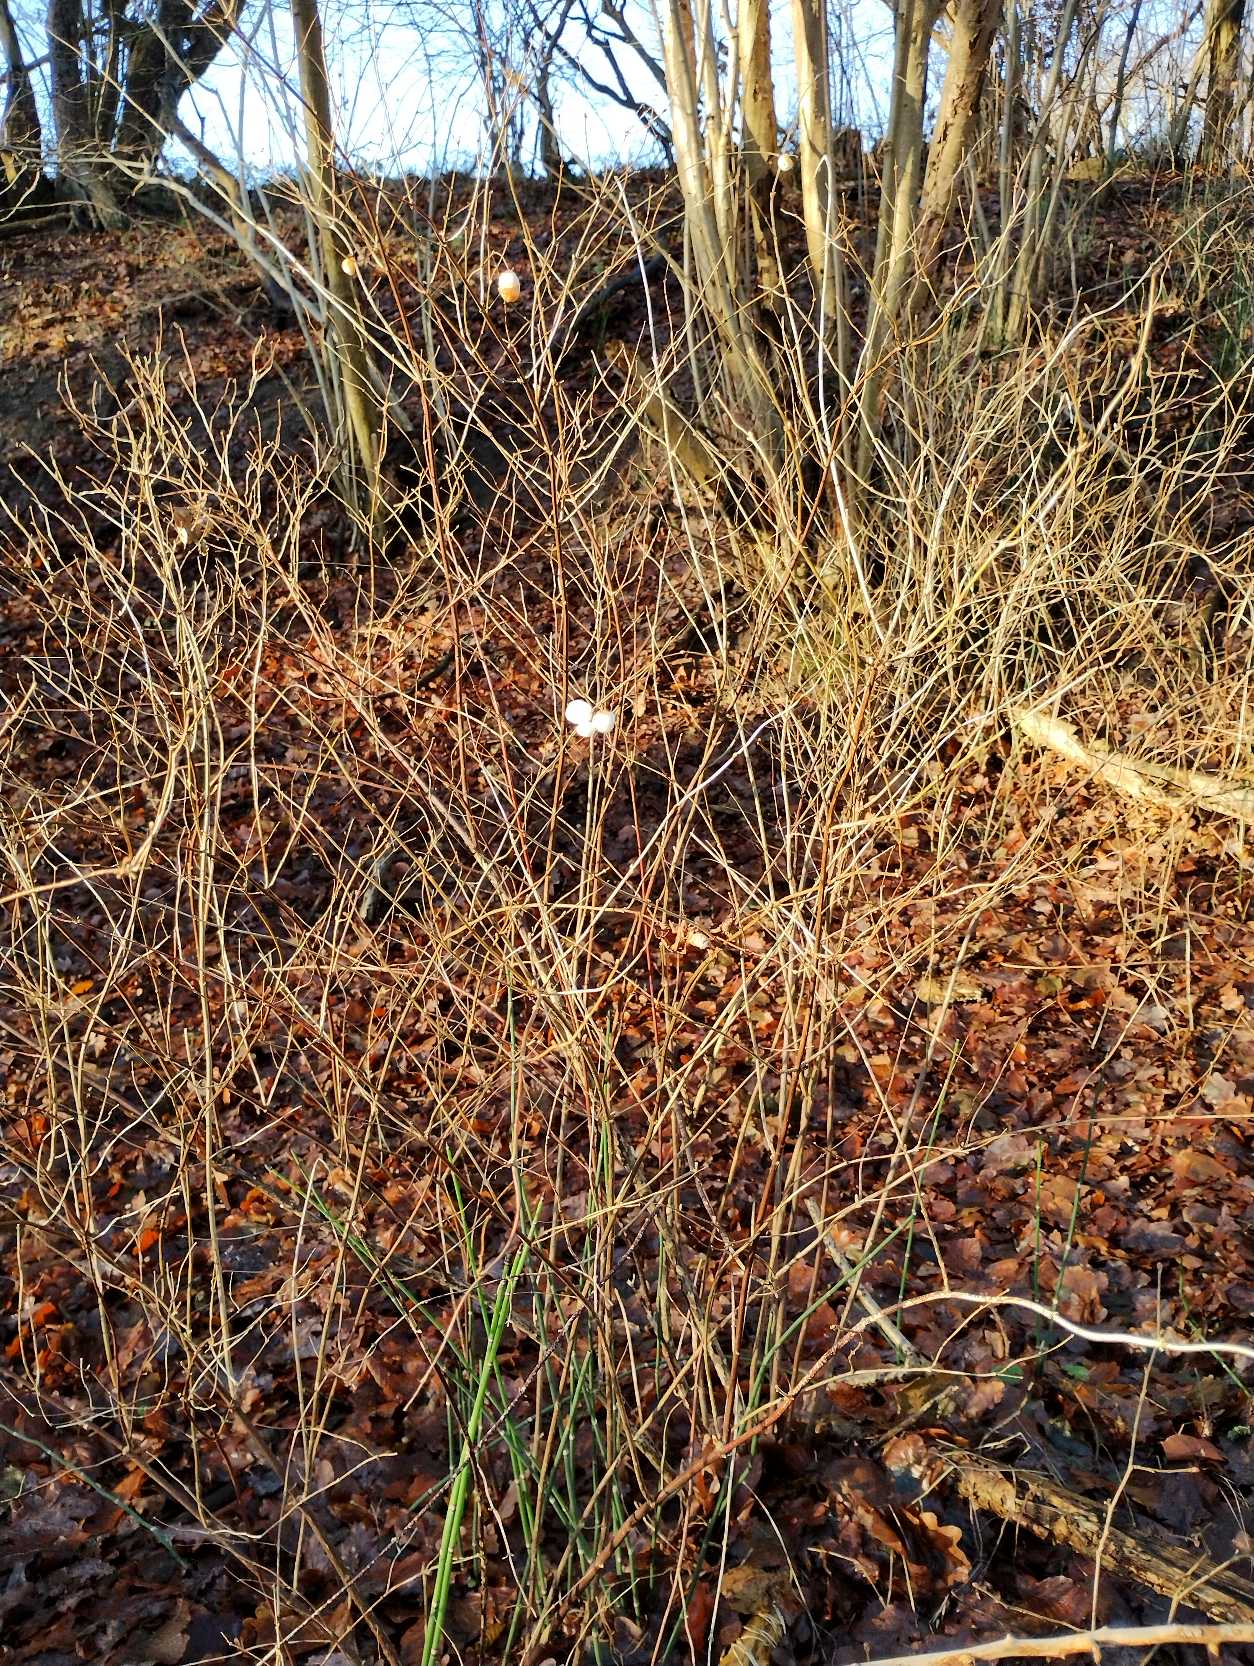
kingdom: Plantae
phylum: Tracheophyta
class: Magnoliopsida
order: Dipsacales
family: Caprifoliaceae
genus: Symphoricarpos
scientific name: Symphoricarpos albus
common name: Almindelig snebær
